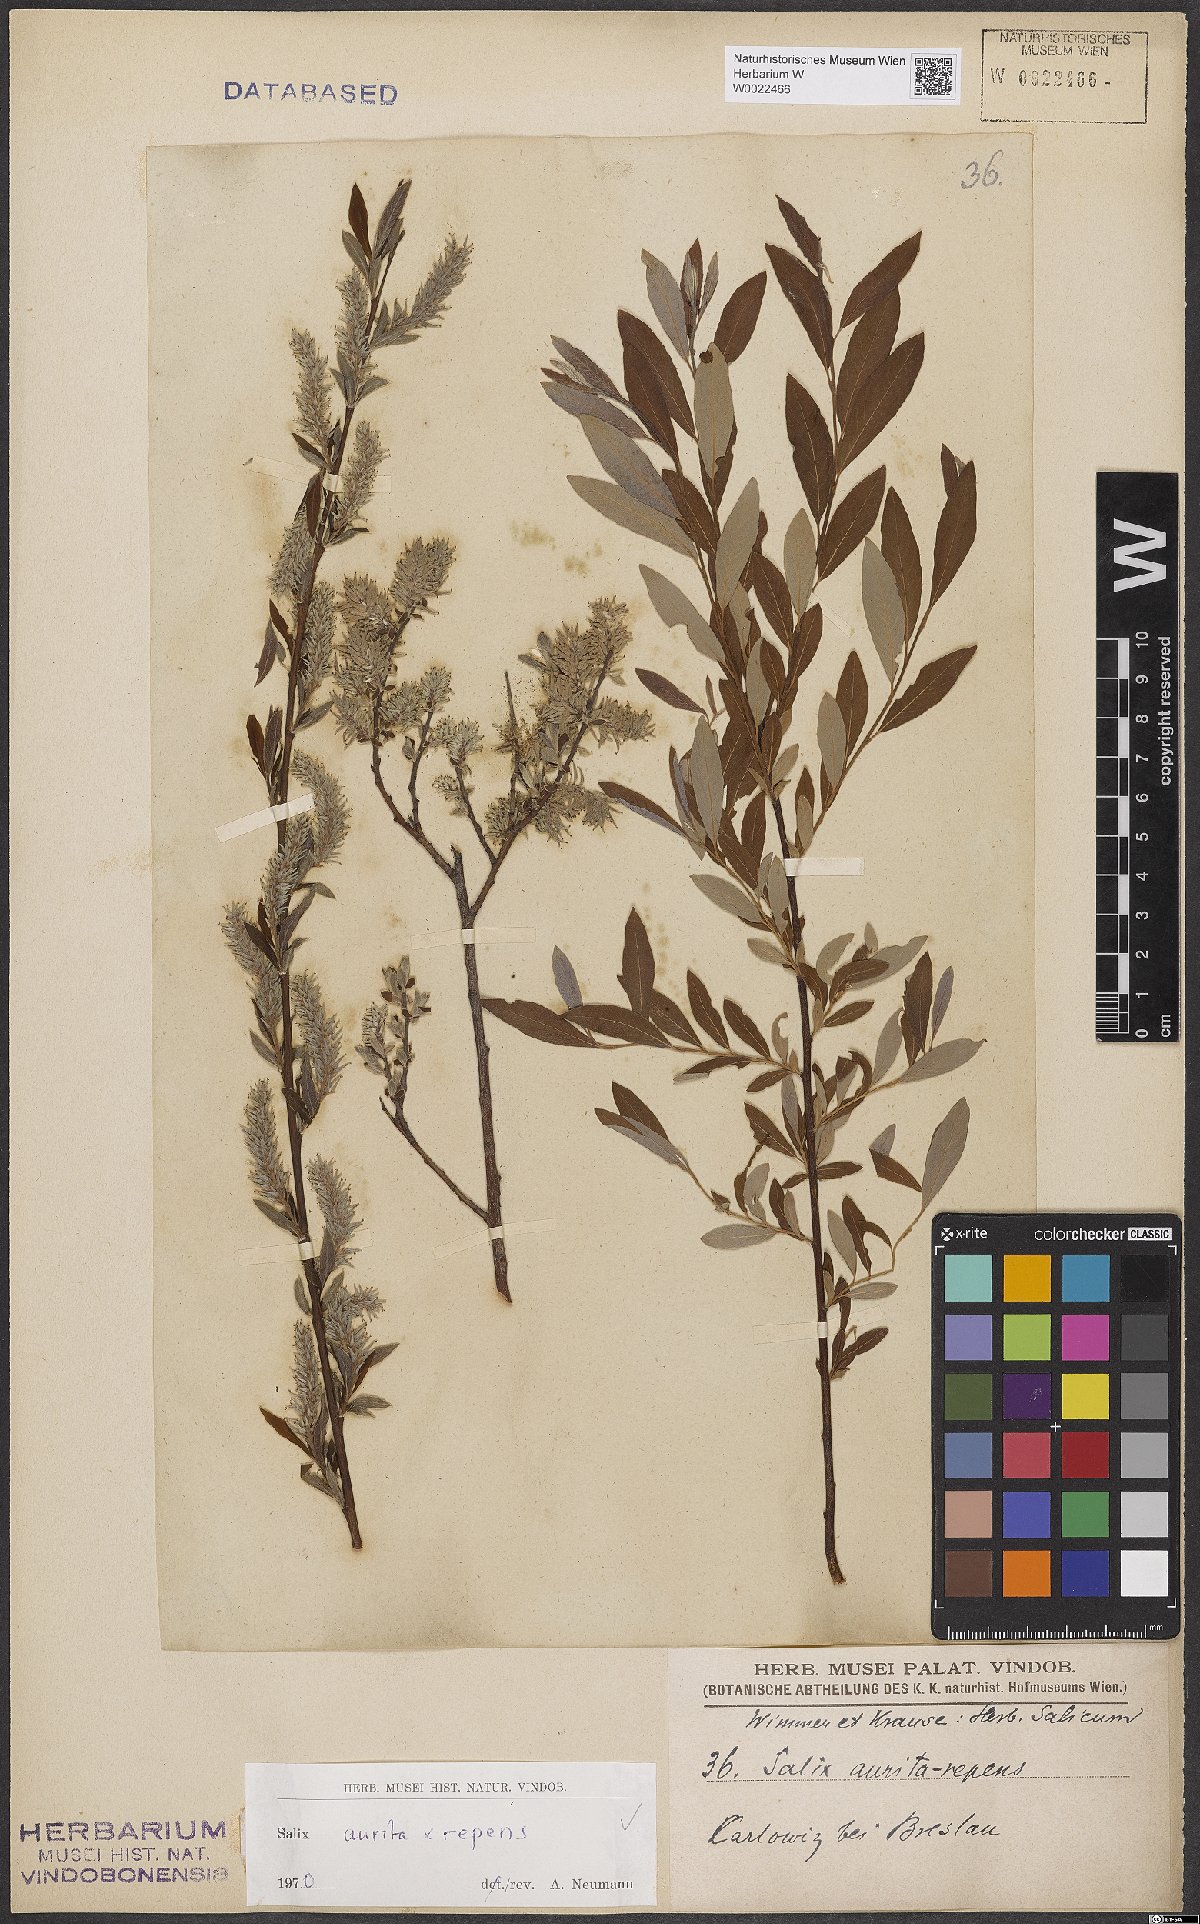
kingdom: Plantae
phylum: Tracheophyta
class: Magnoliopsida
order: Malpighiales
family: Salicaceae
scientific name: Salicaceae
